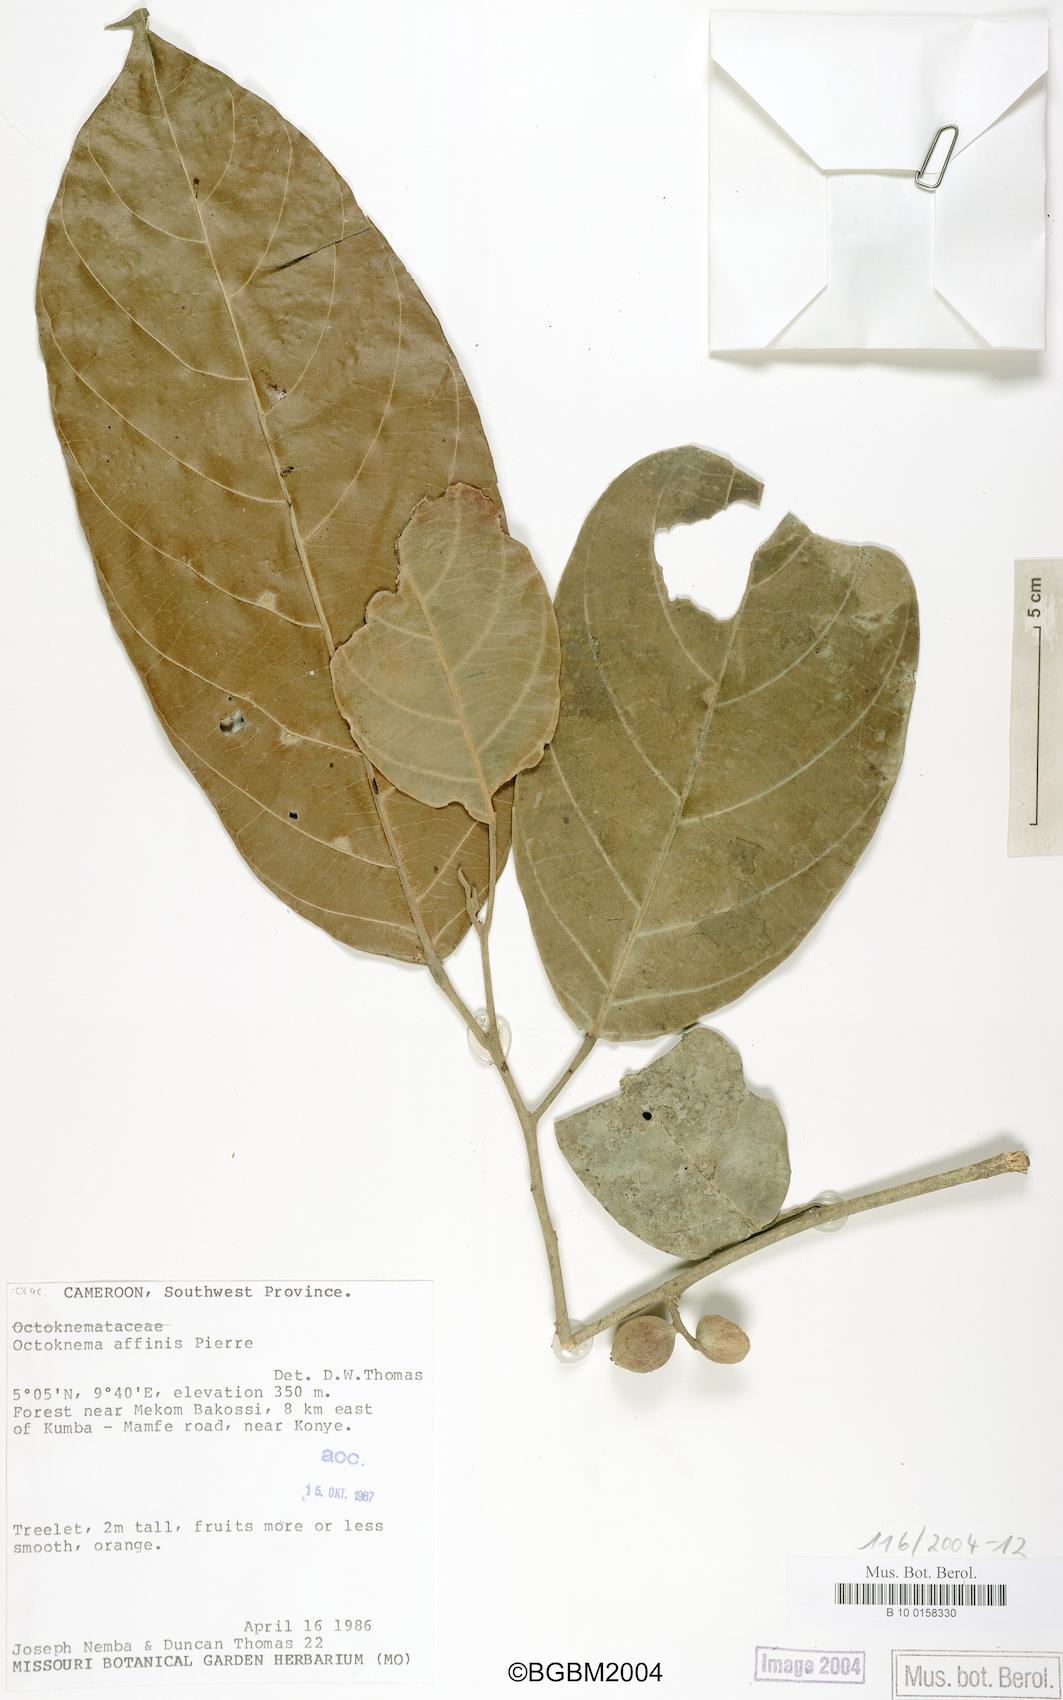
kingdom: Plantae
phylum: Tracheophyta
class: Magnoliopsida
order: Santalales
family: Octoknemaceae
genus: Octoknema
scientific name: Octoknema affinis
